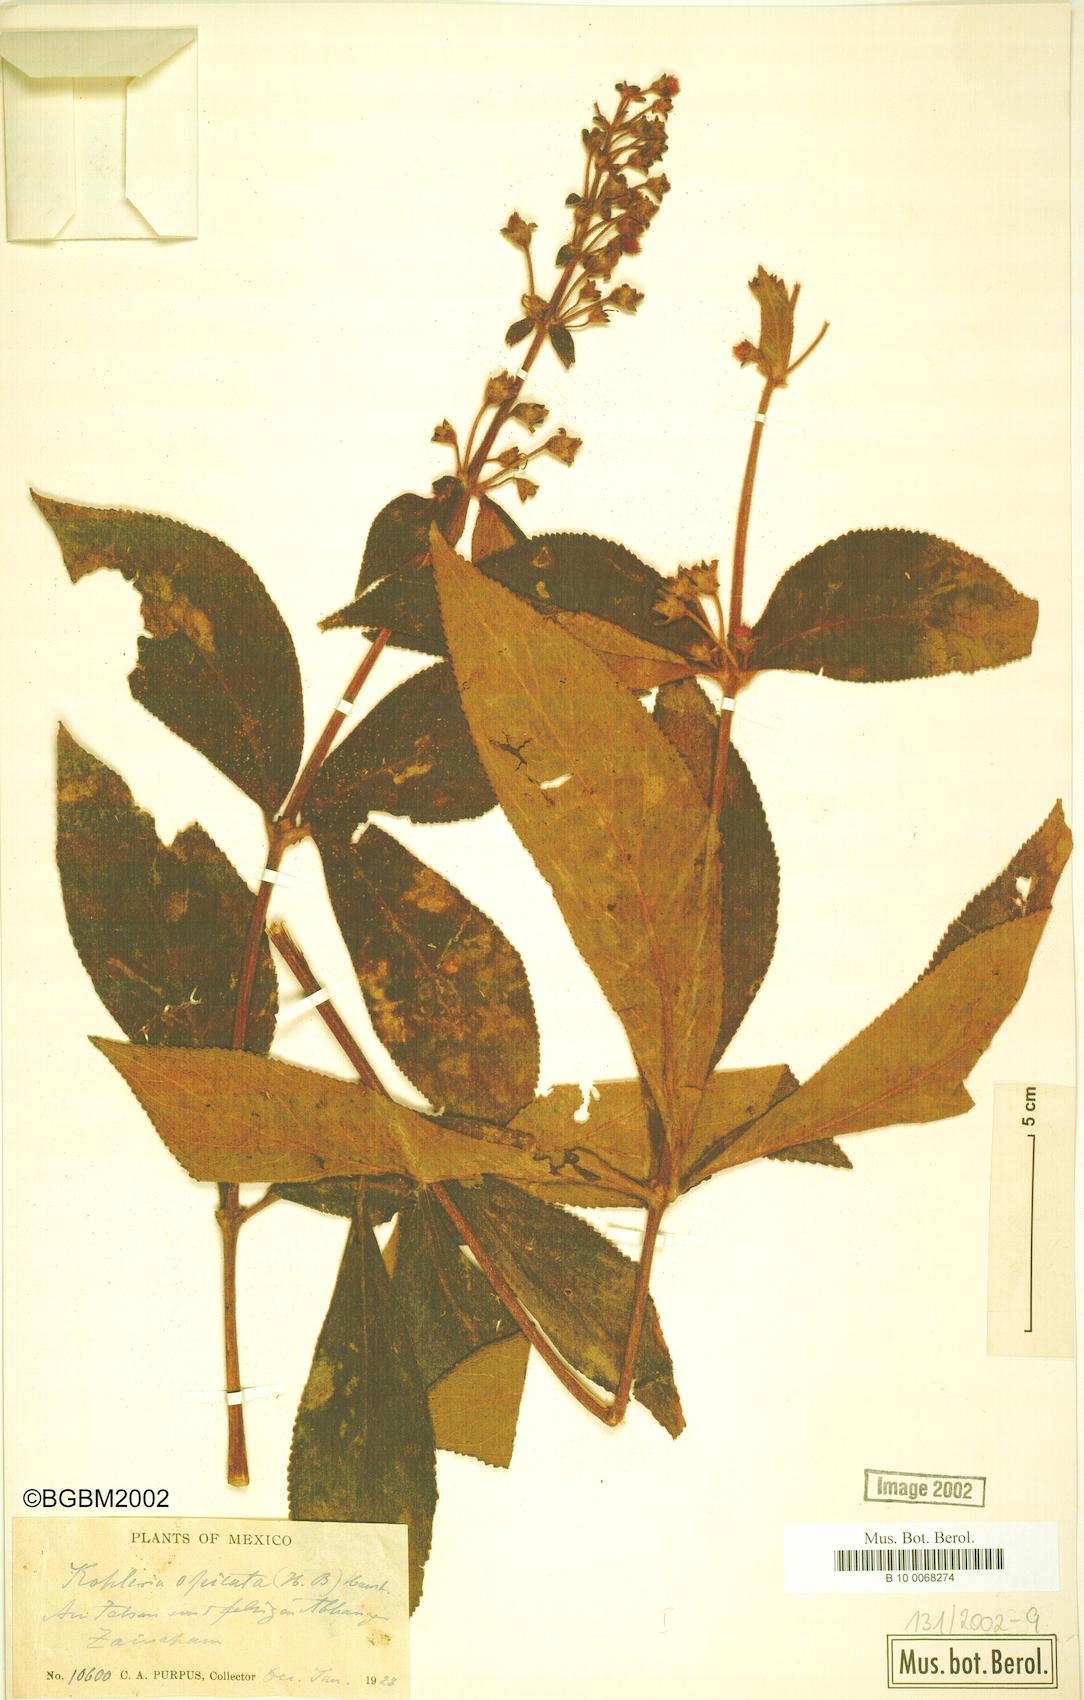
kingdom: Plantae
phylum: Tracheophyta
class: Magnoliopsida
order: Lamiales
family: Gesneriaceae
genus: Kohleria
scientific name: Kohleria spicata
